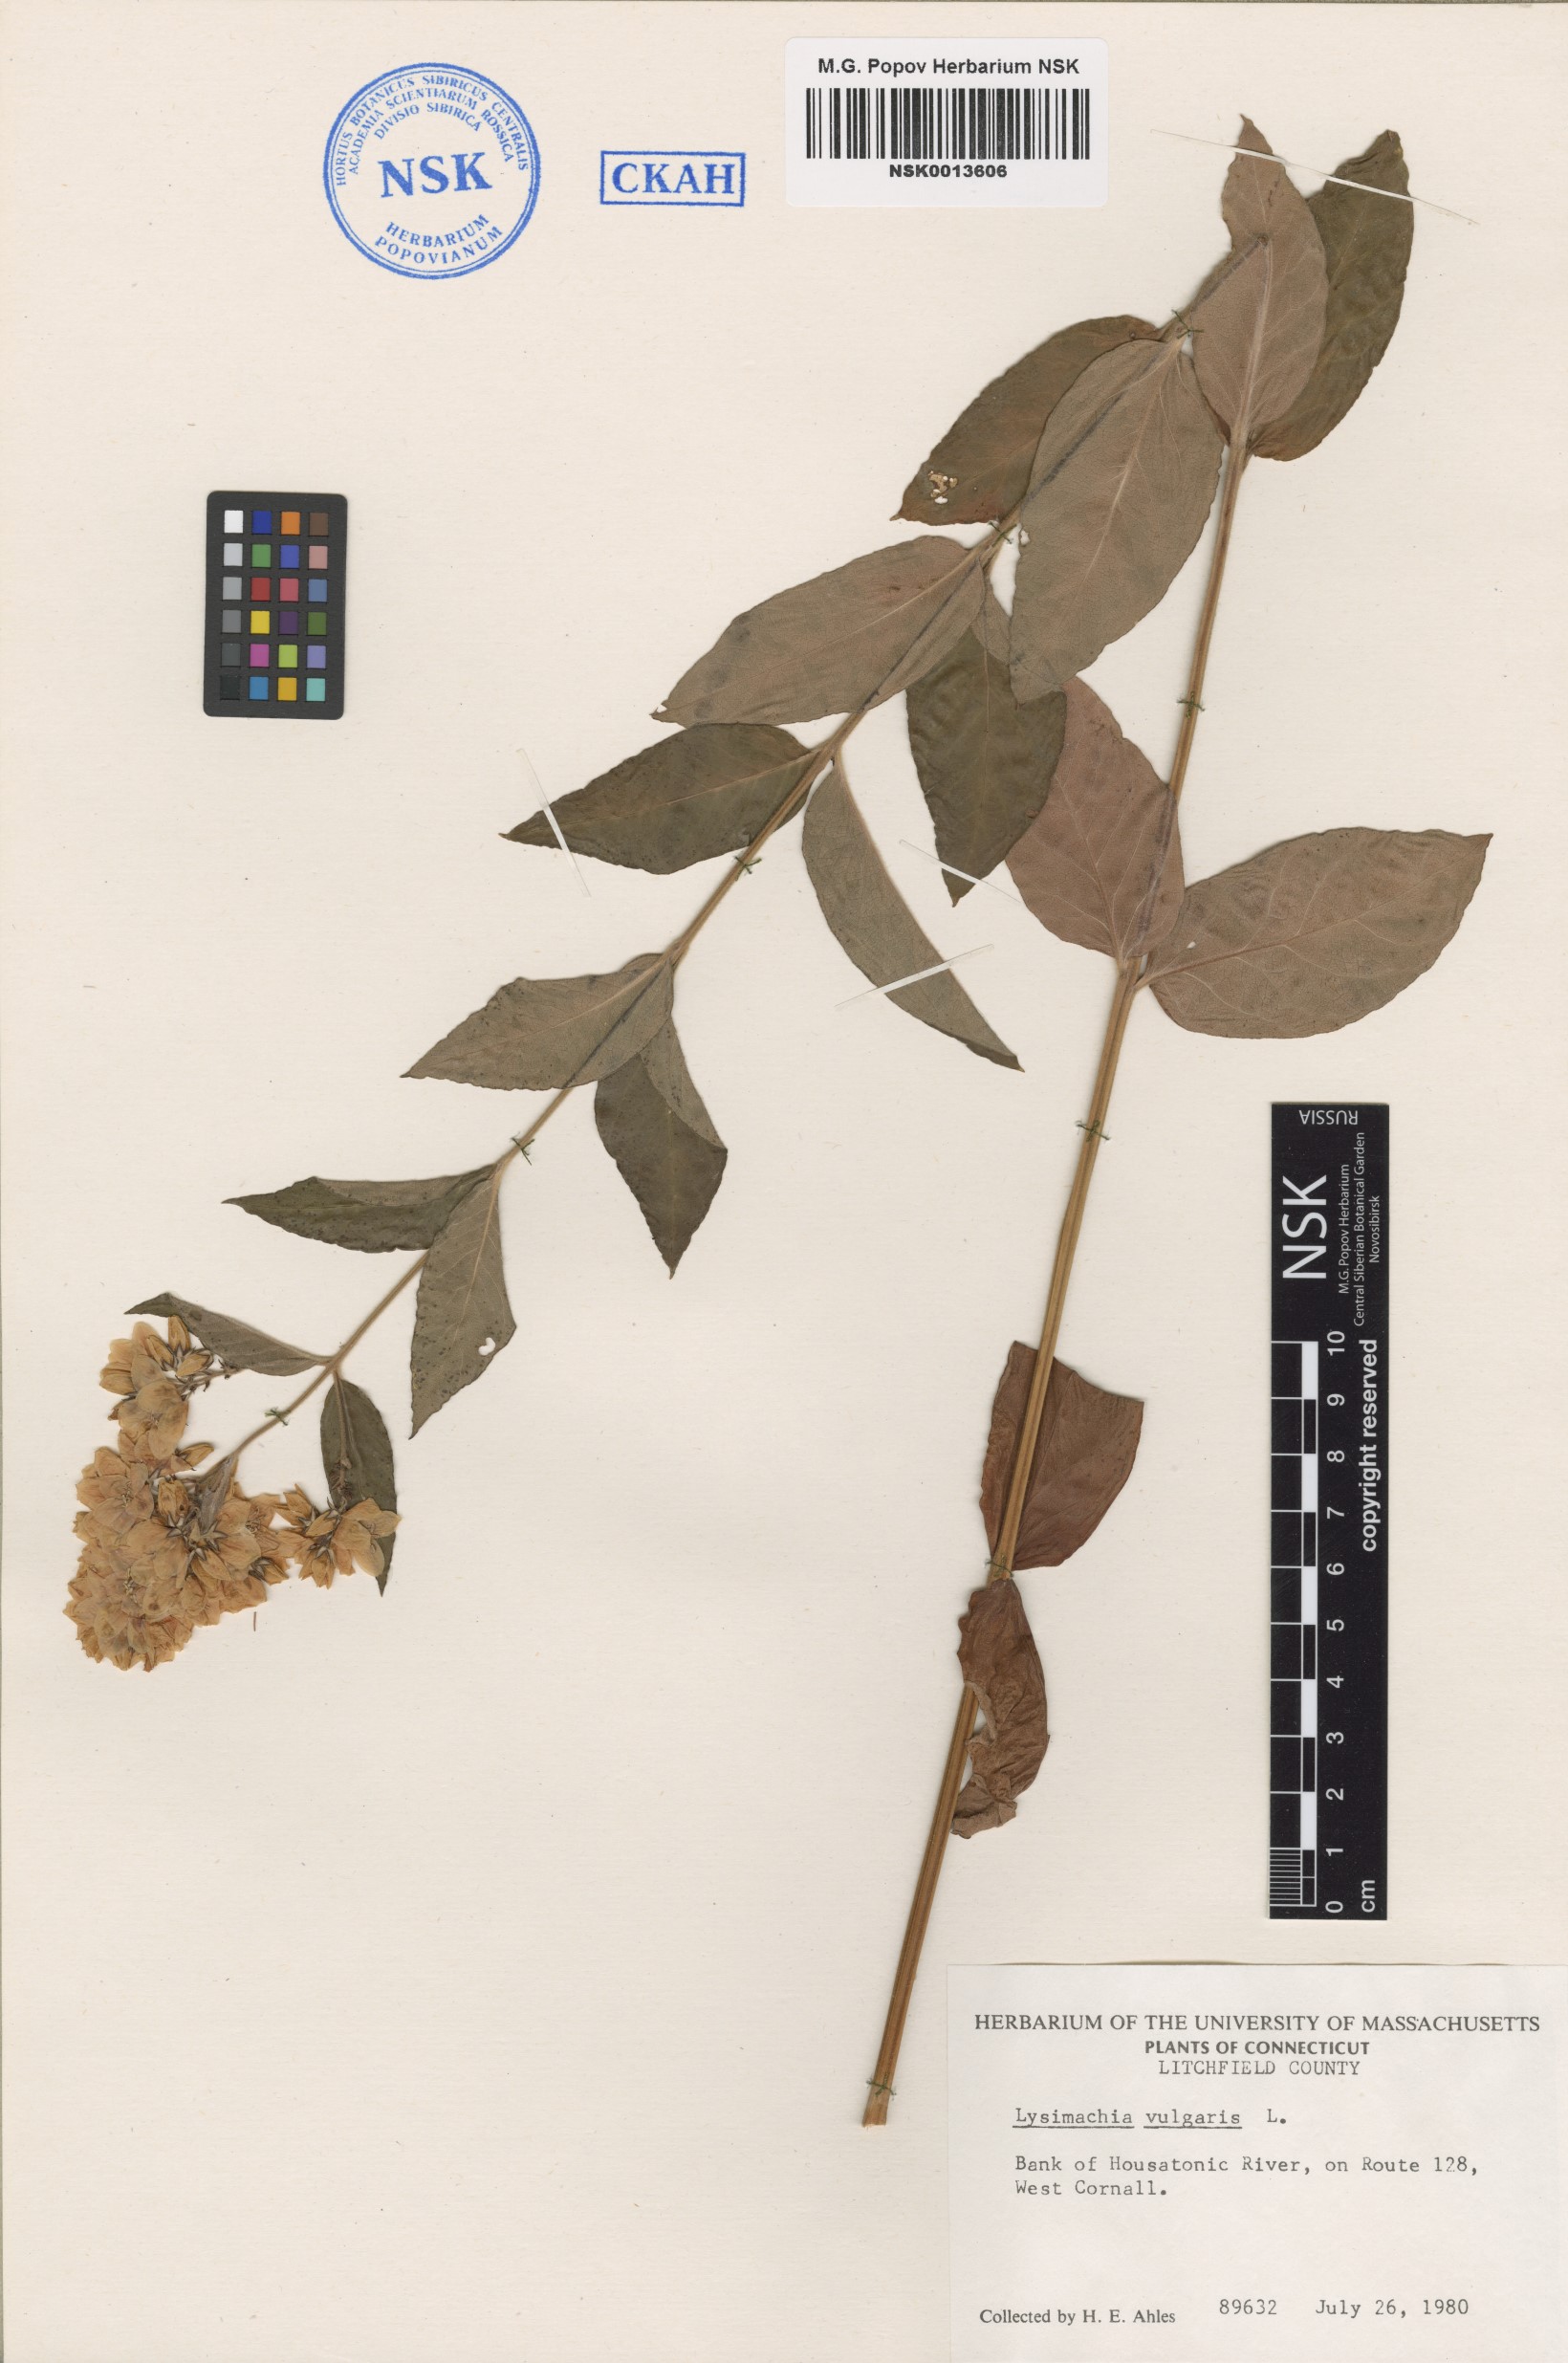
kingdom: Plantae
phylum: Tracheophyta
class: Magnoliopsida
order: Ericales
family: Primulaceae
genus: Lysimachia
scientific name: Lysimachia vulgaris
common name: Yellow loosestrife
